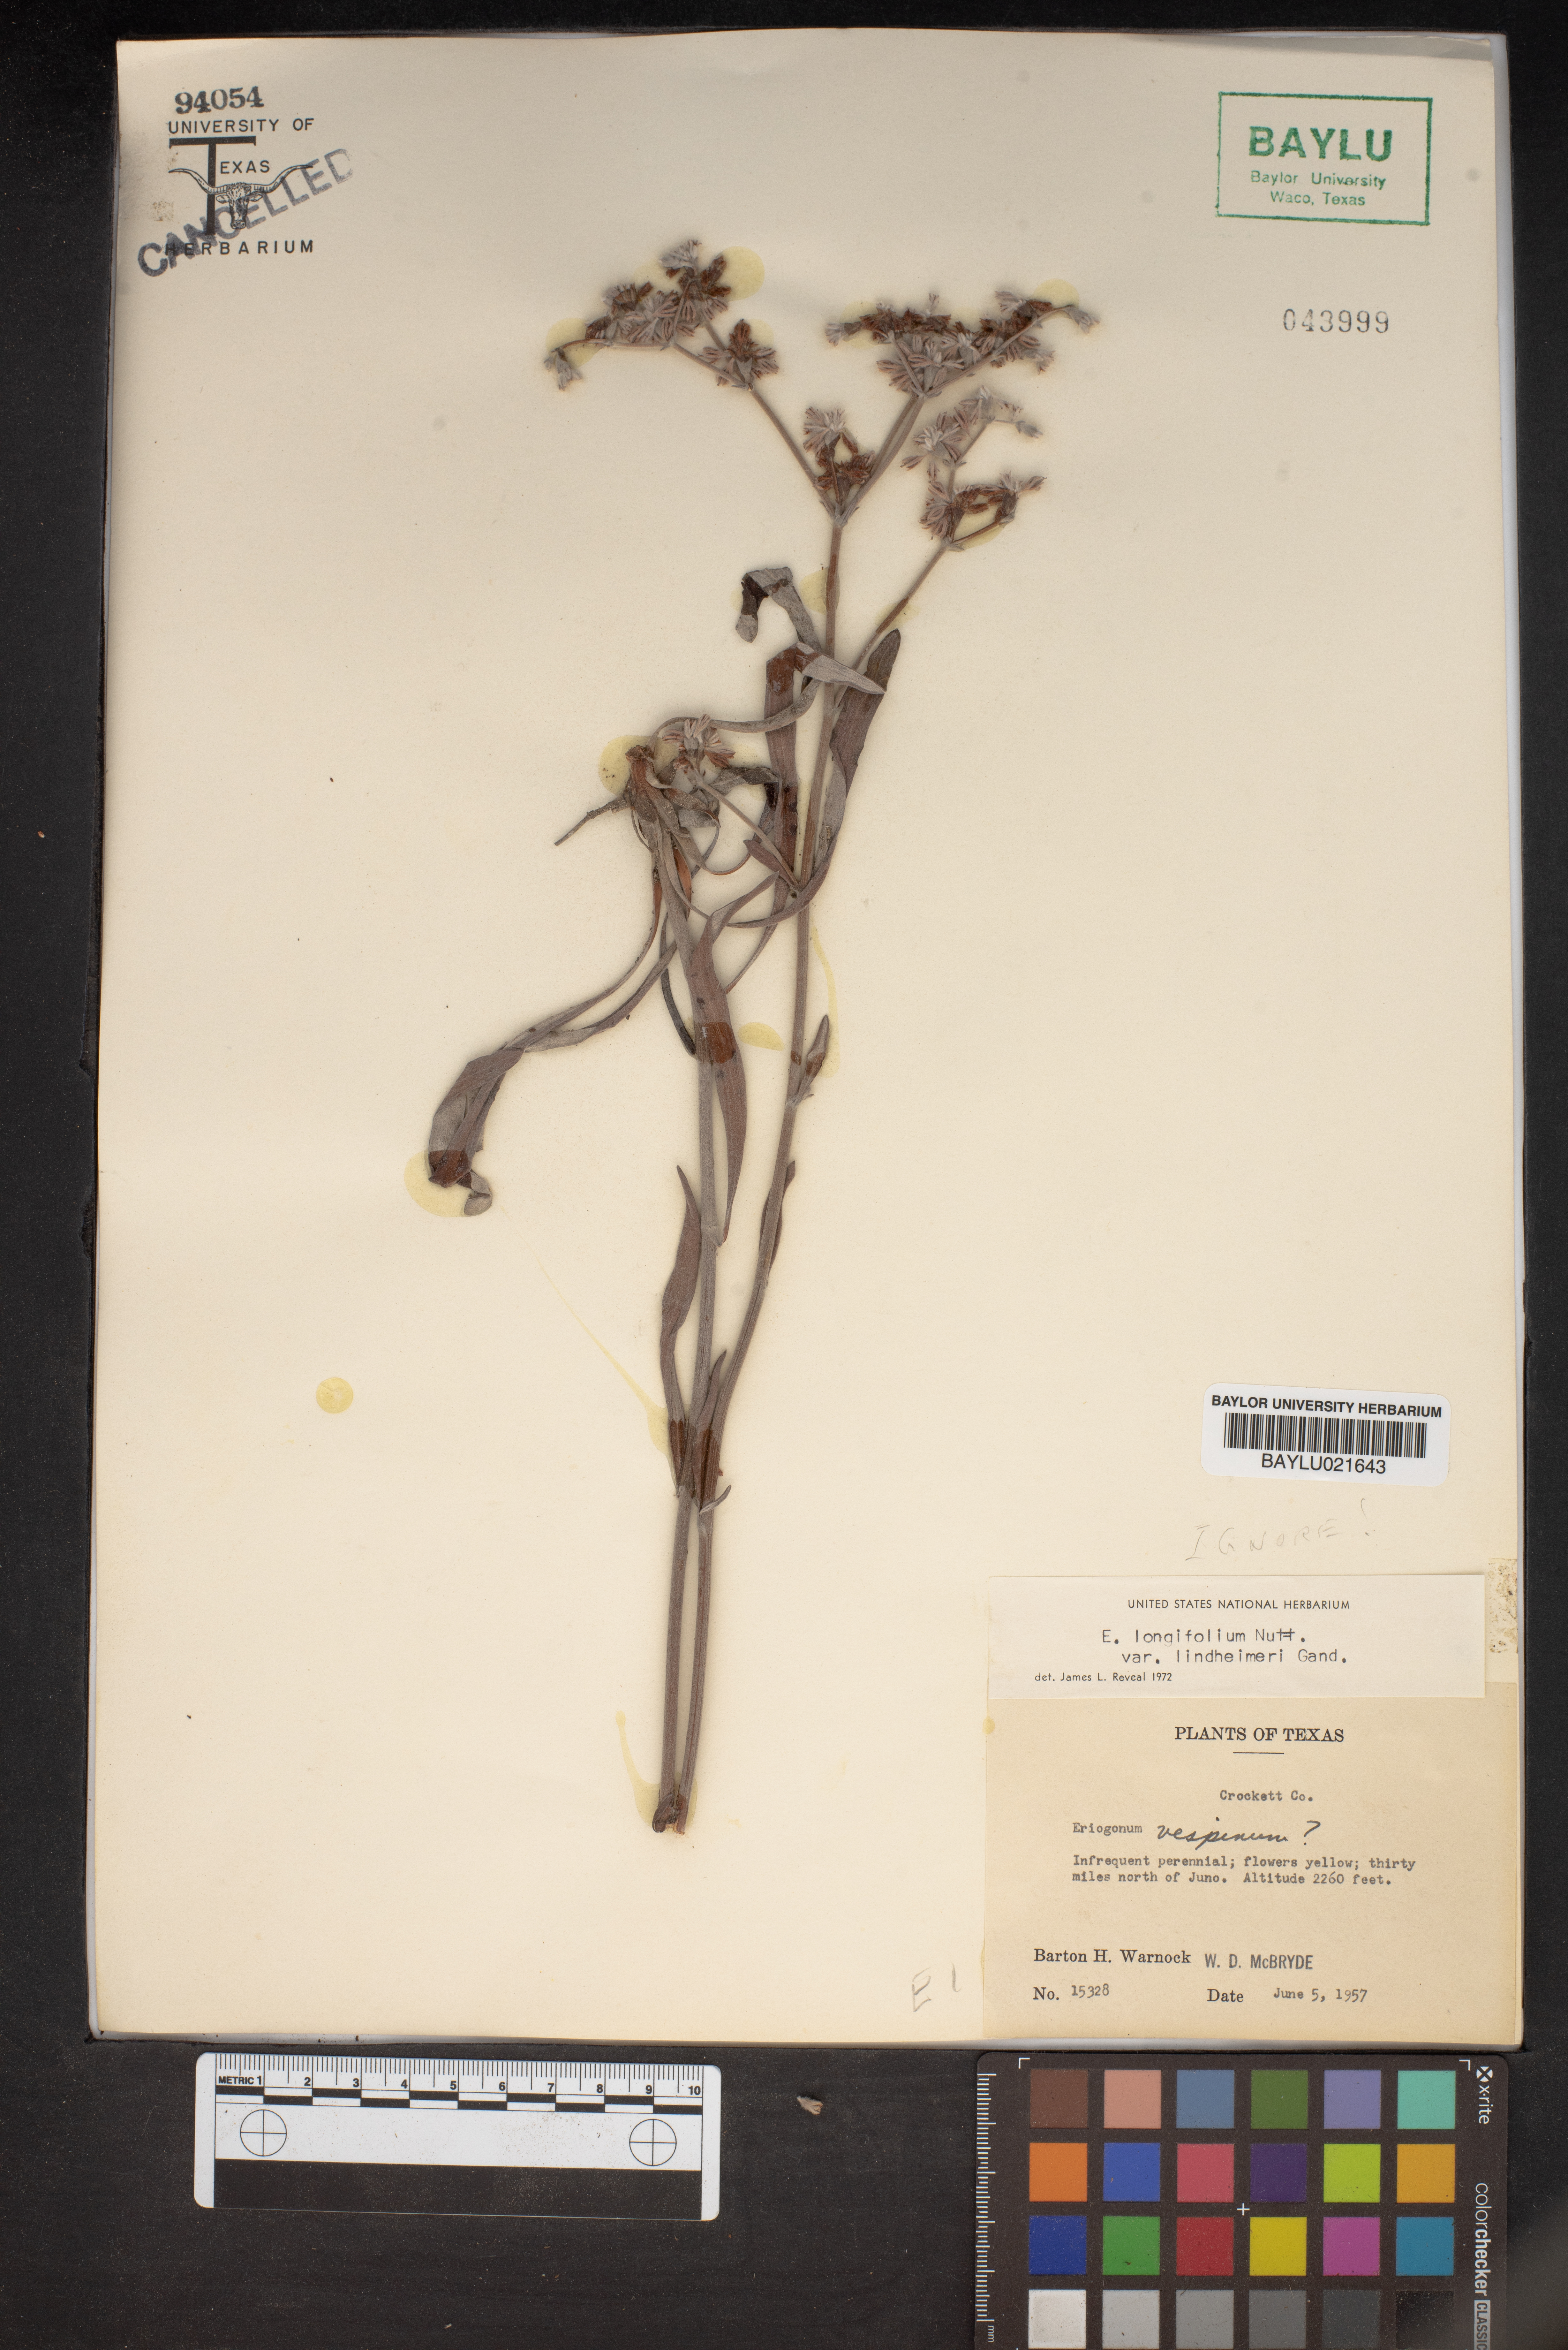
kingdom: Plantae
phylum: Tracheophyta
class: Magnoliopsida
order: Caryophyllales
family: Polygonaceae
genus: Eriogonum
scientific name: Eriogonum longifolium
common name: Longleaf wild buckwheat
